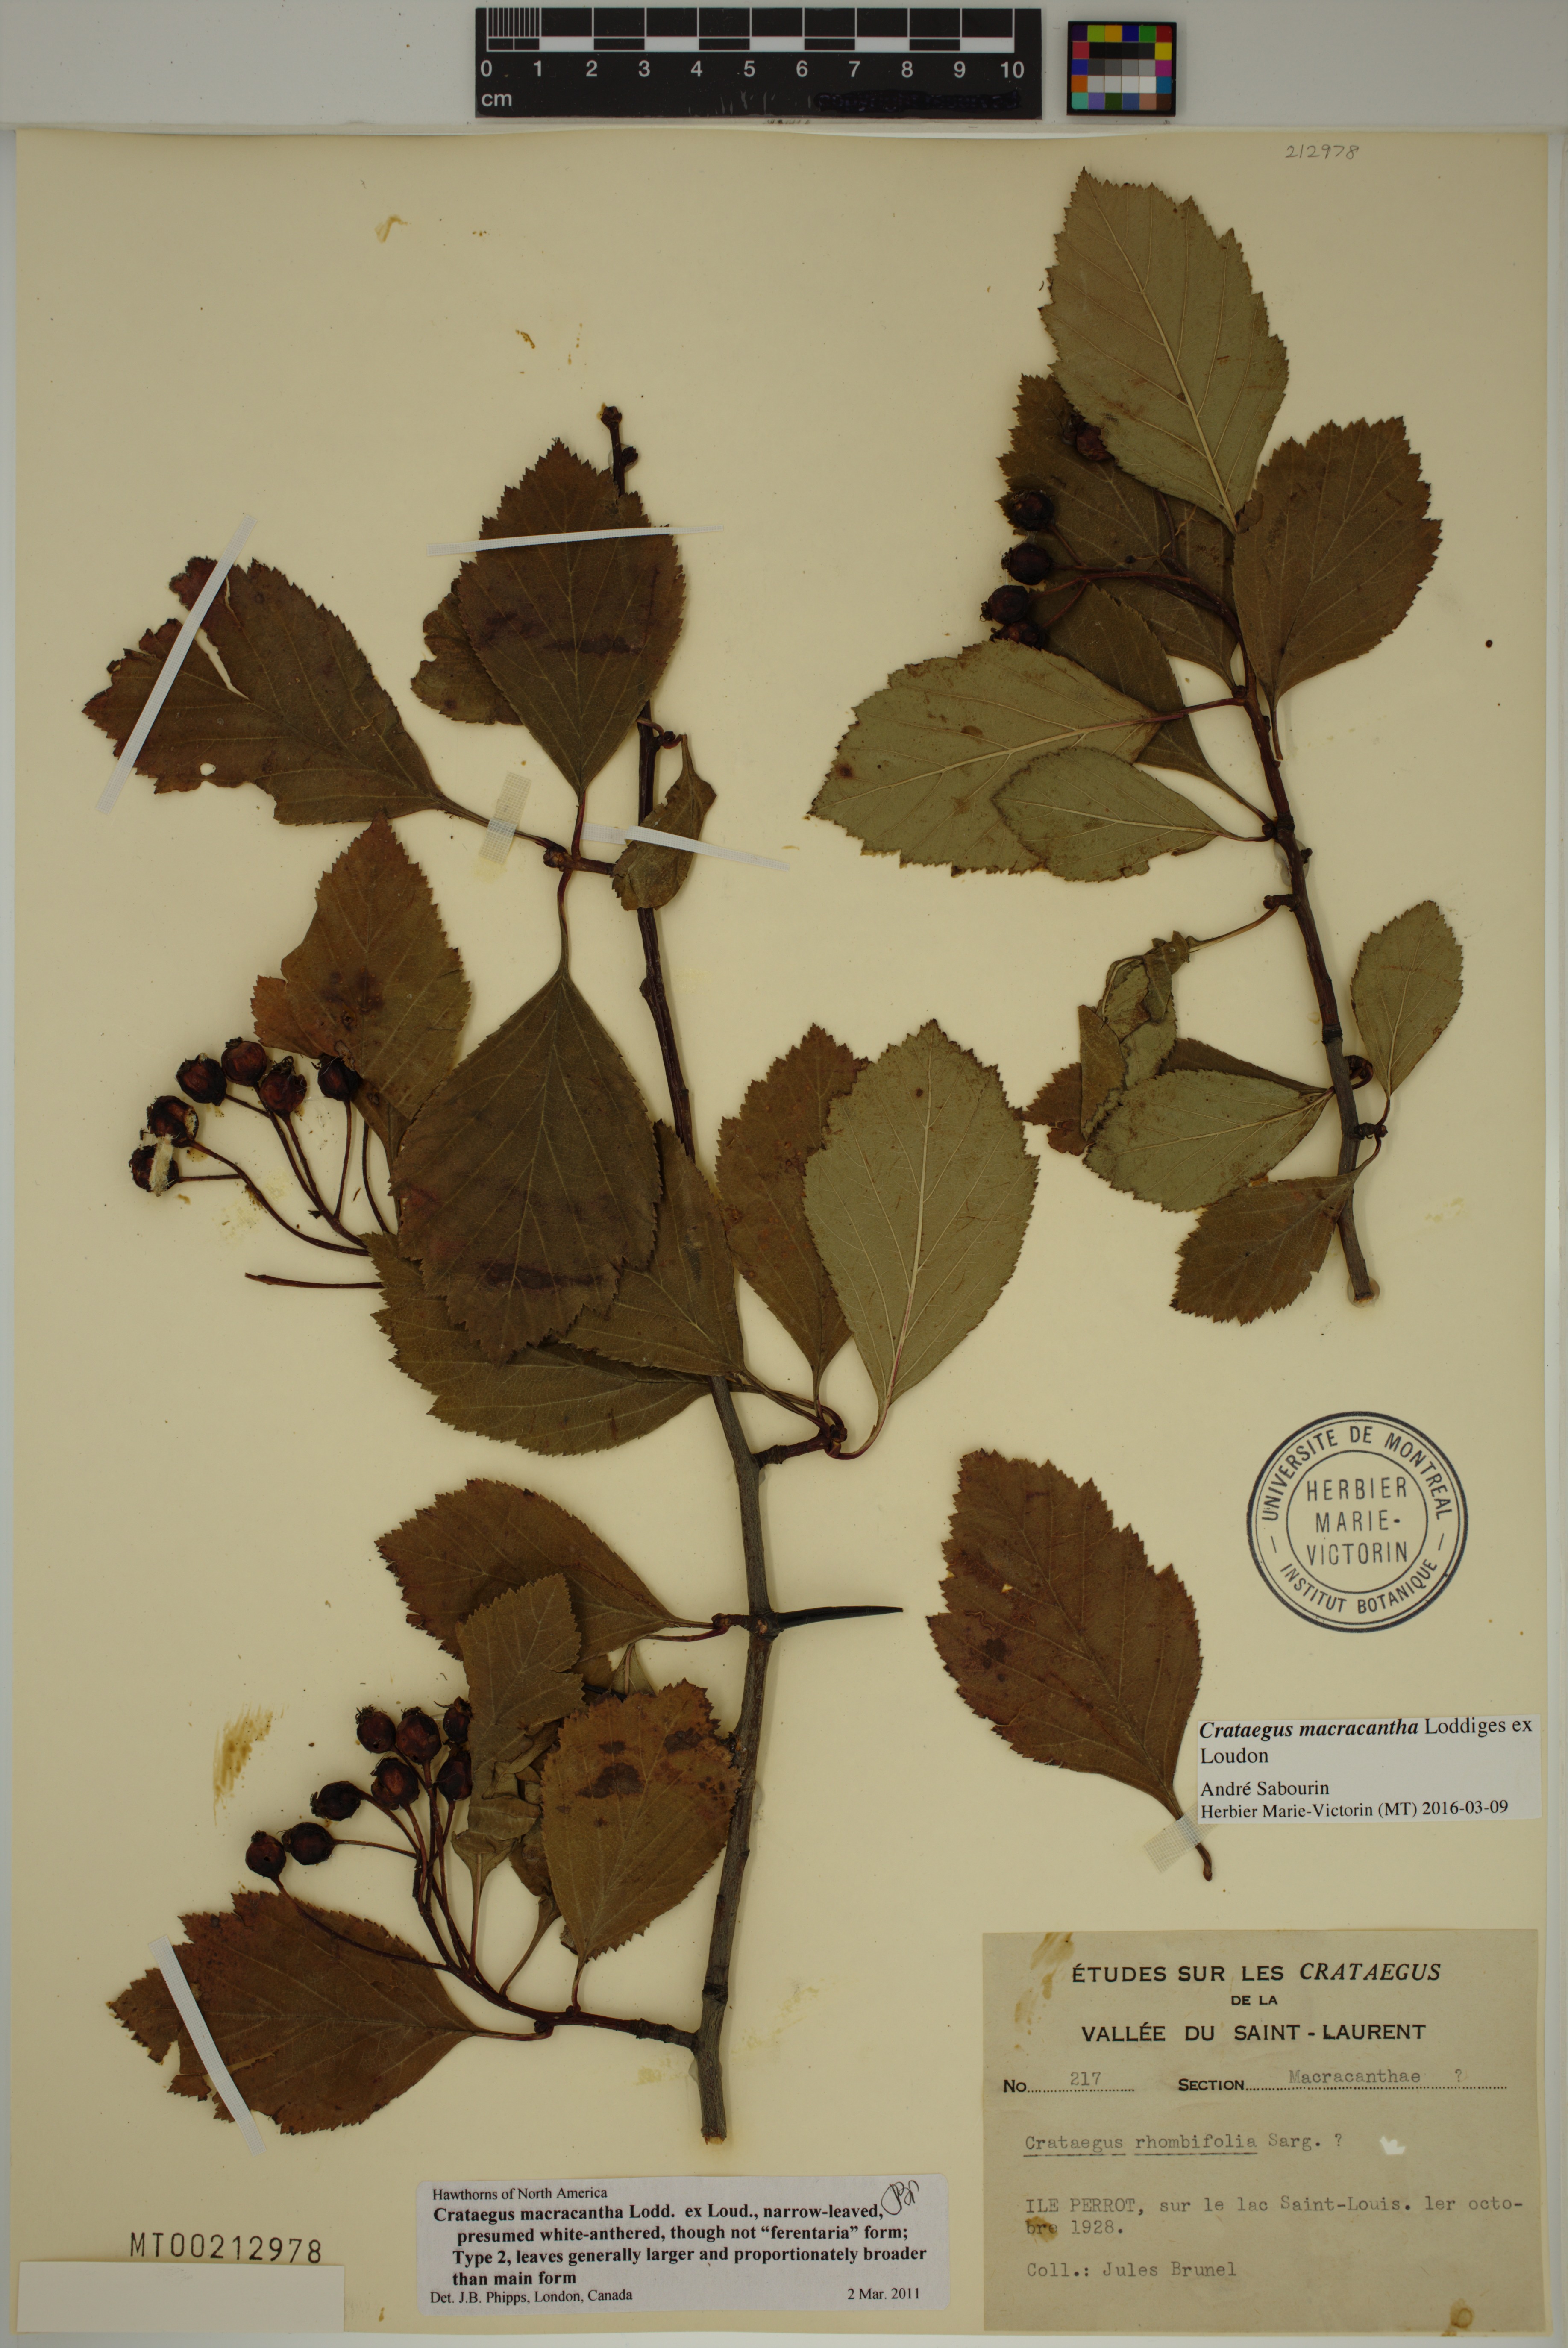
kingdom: Plantae
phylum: Tracheophyta
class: Magnoliopsida
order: Rosales
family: Rosaceae
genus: Crataegus
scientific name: Crataegus macracantha
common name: Large-thorn hawthorn
